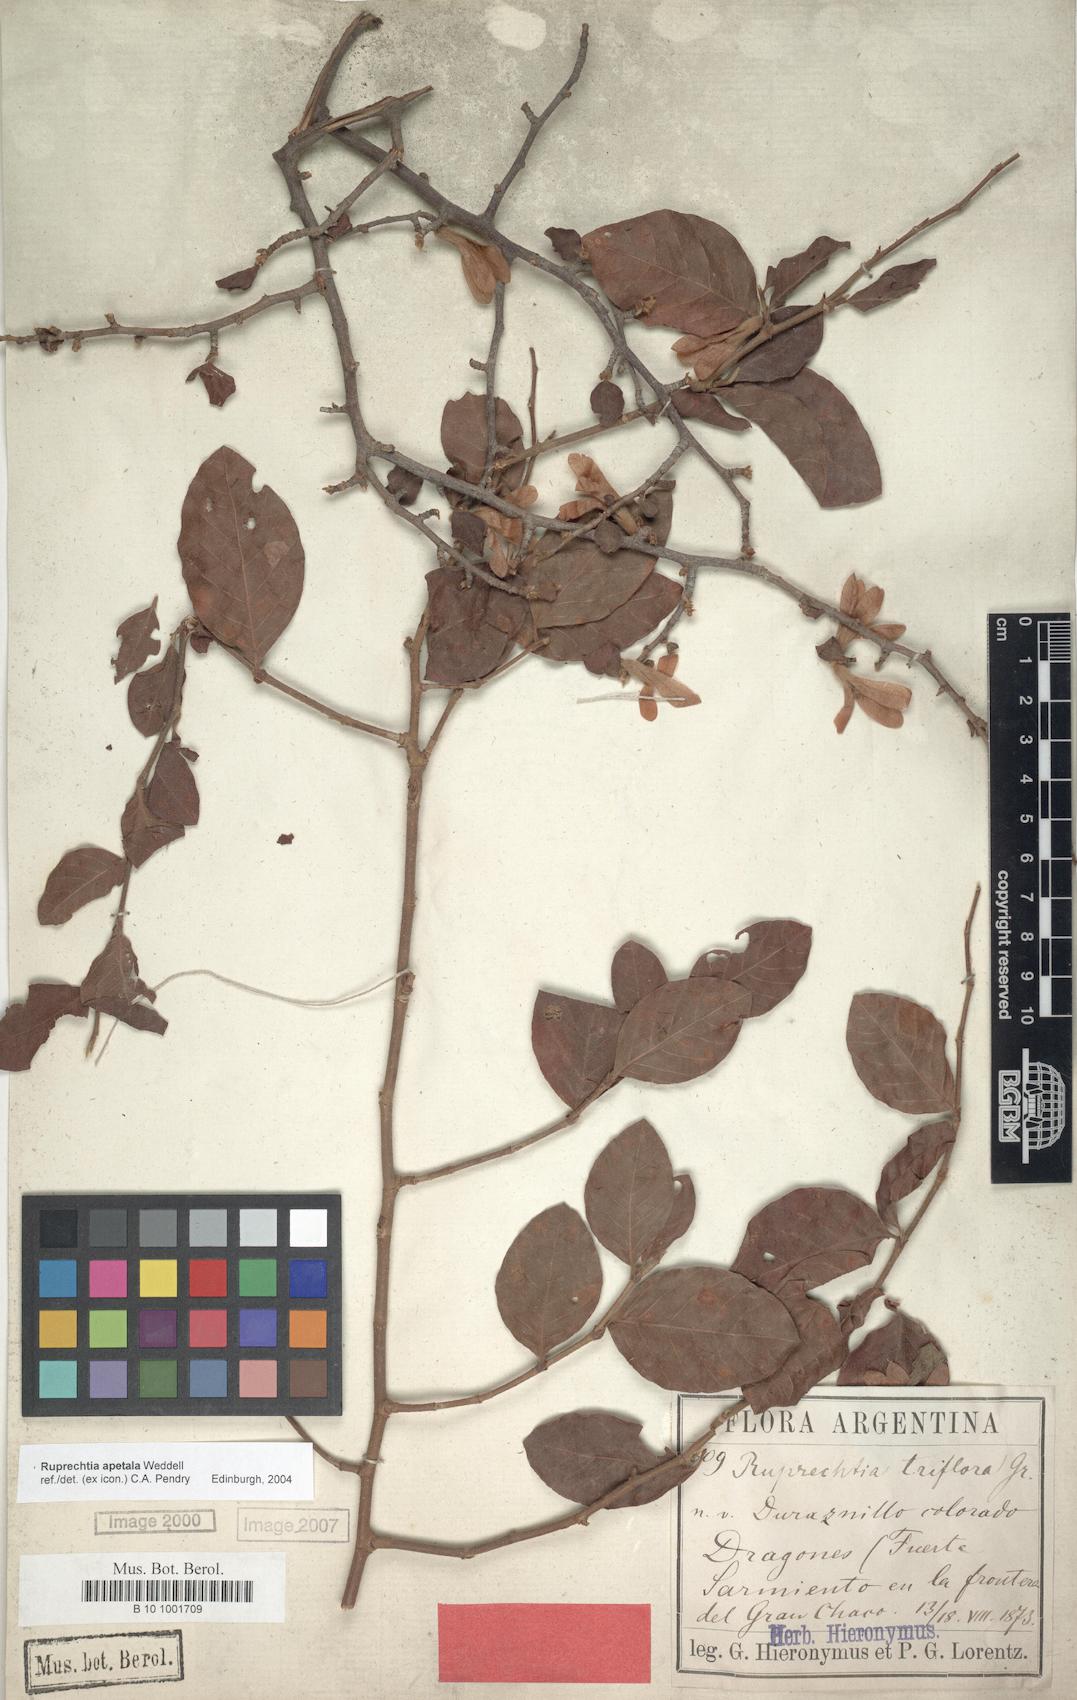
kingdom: Plantae
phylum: Tracheophyta
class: Magnoliopsida
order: Caryophyllales
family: Polygonaceae
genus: Salta
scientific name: Salta triflora
